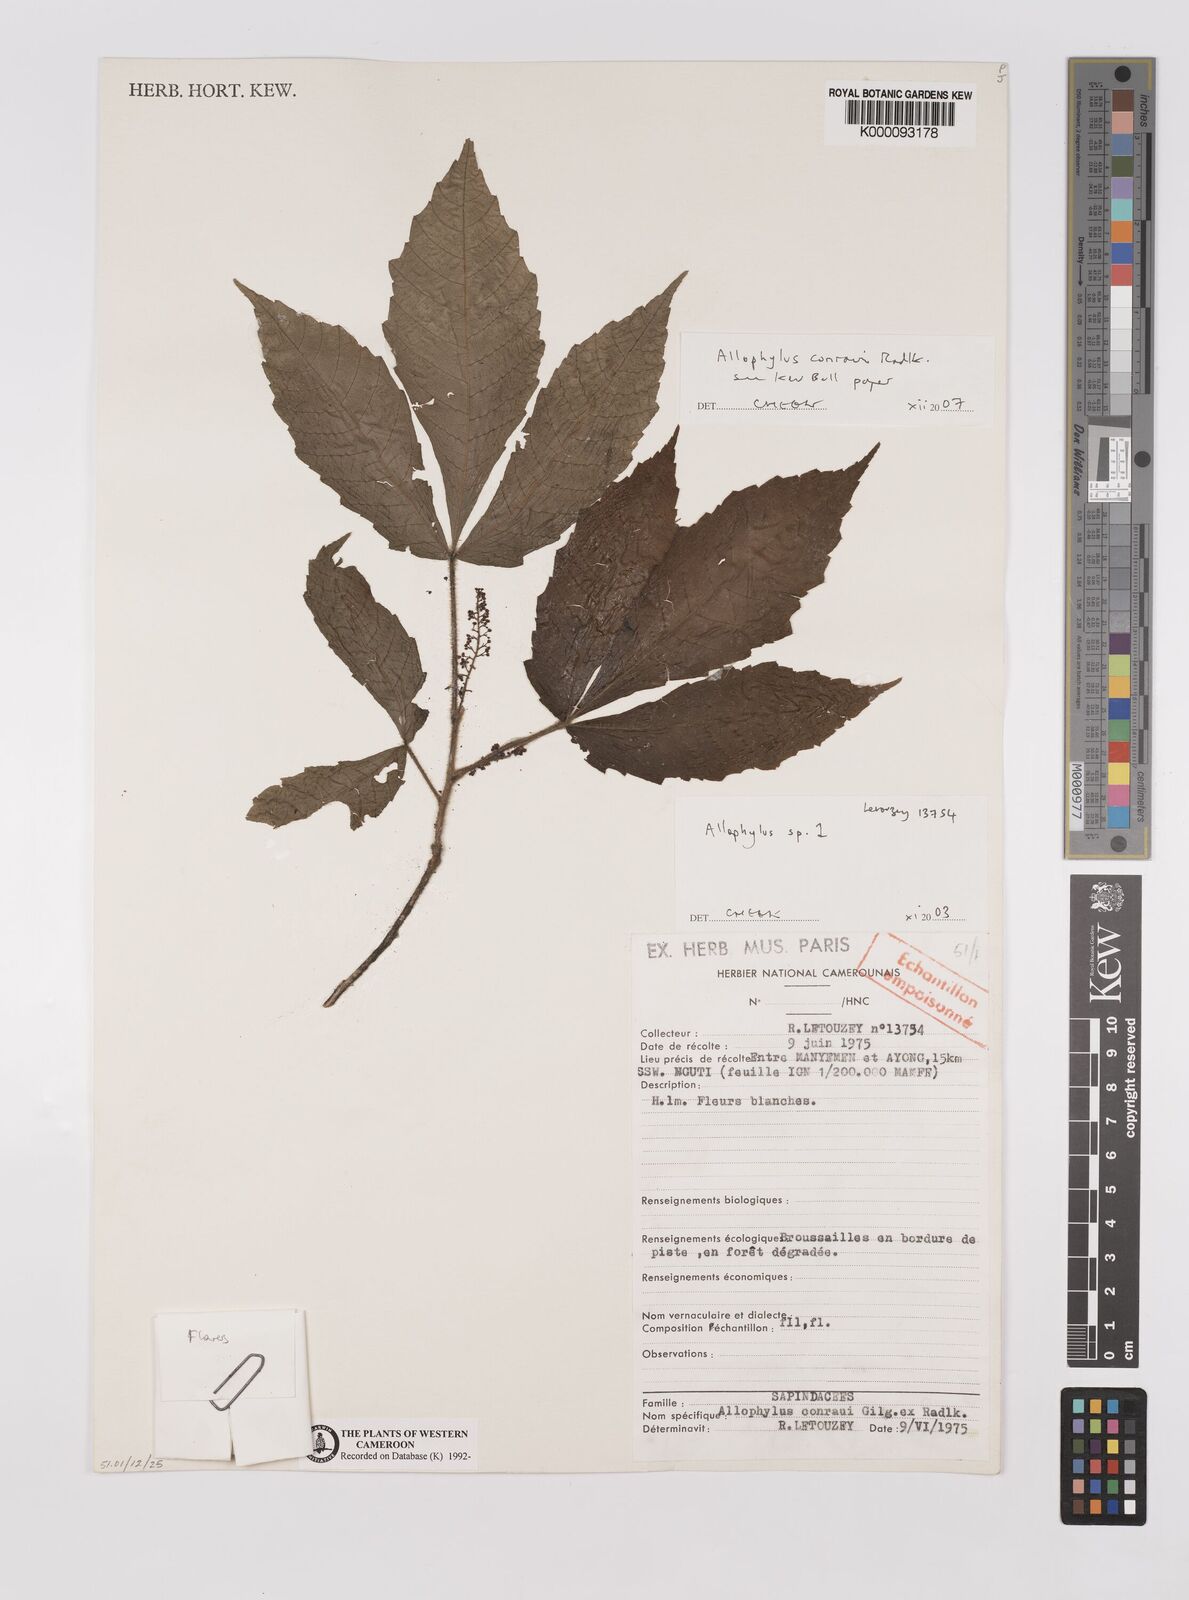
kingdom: Plantae
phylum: Tracheophyta
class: Magnoliopsida
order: Sapindales
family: Sapindaceae
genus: Allophylus
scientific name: Allophylus conraui
